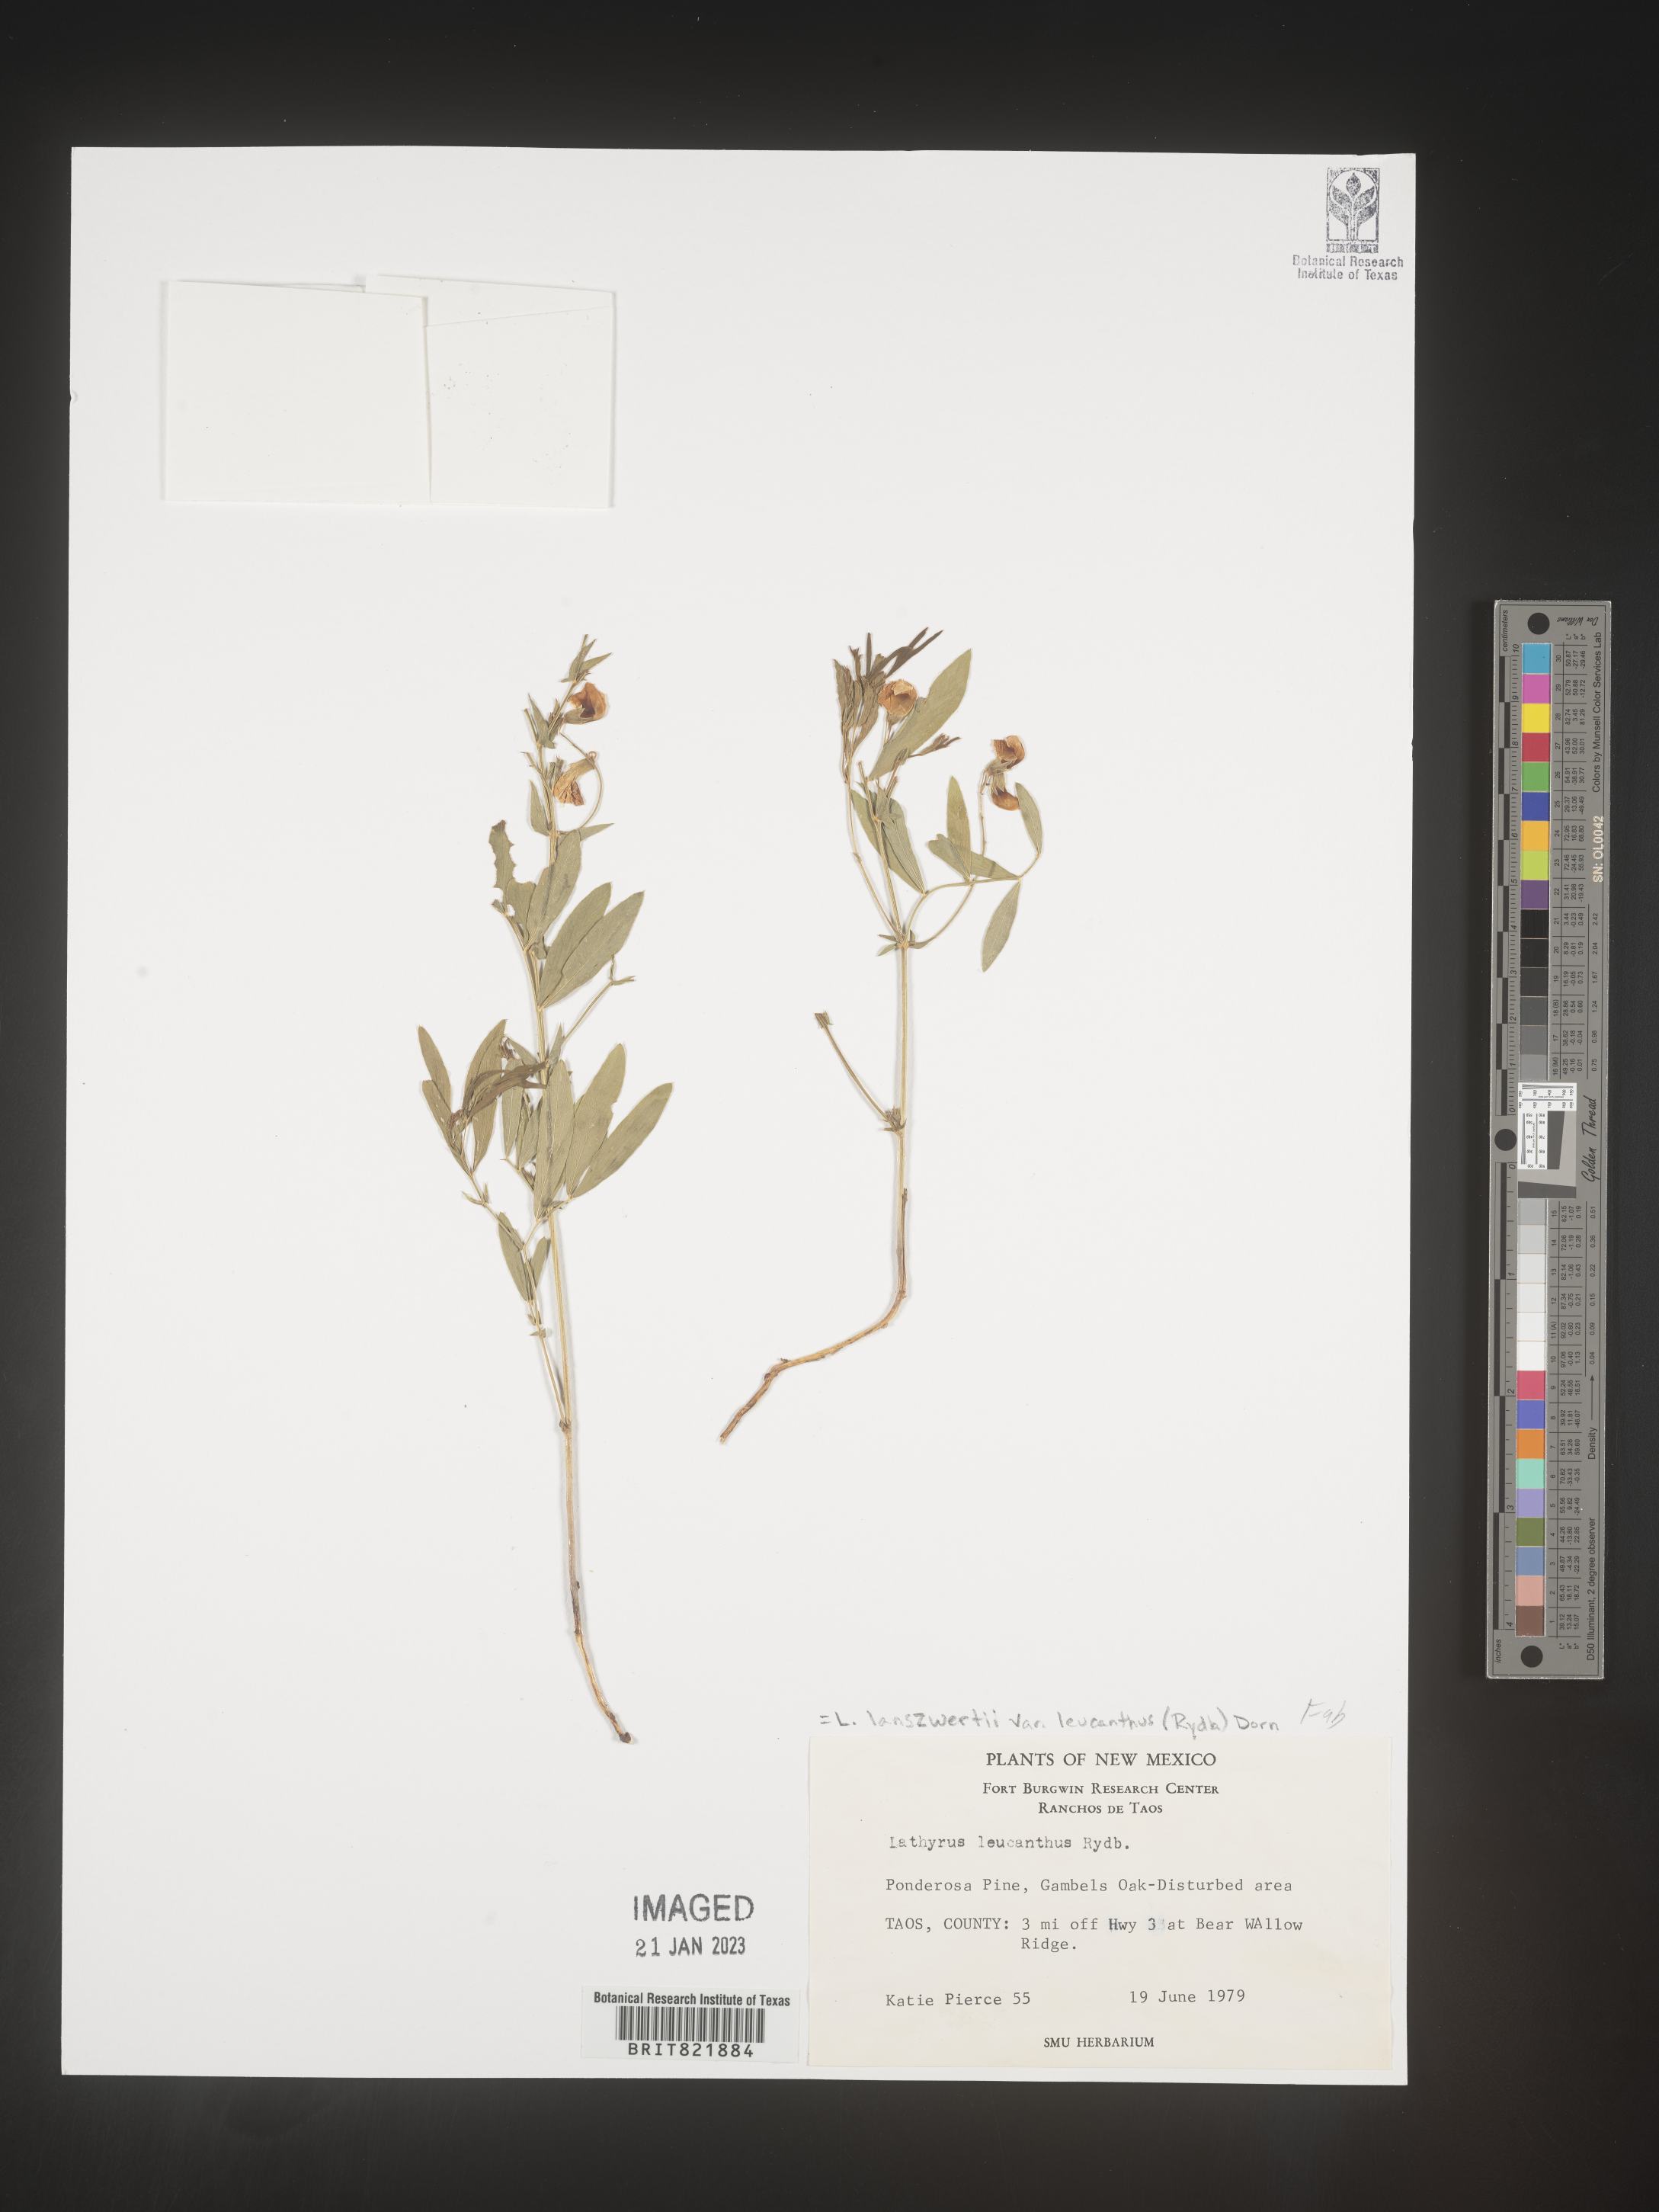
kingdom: Plantae
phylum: Tracheophyta
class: Magnoliopsida
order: Fabales
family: Fabaceae
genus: Lathyrus
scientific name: Lathyrus
